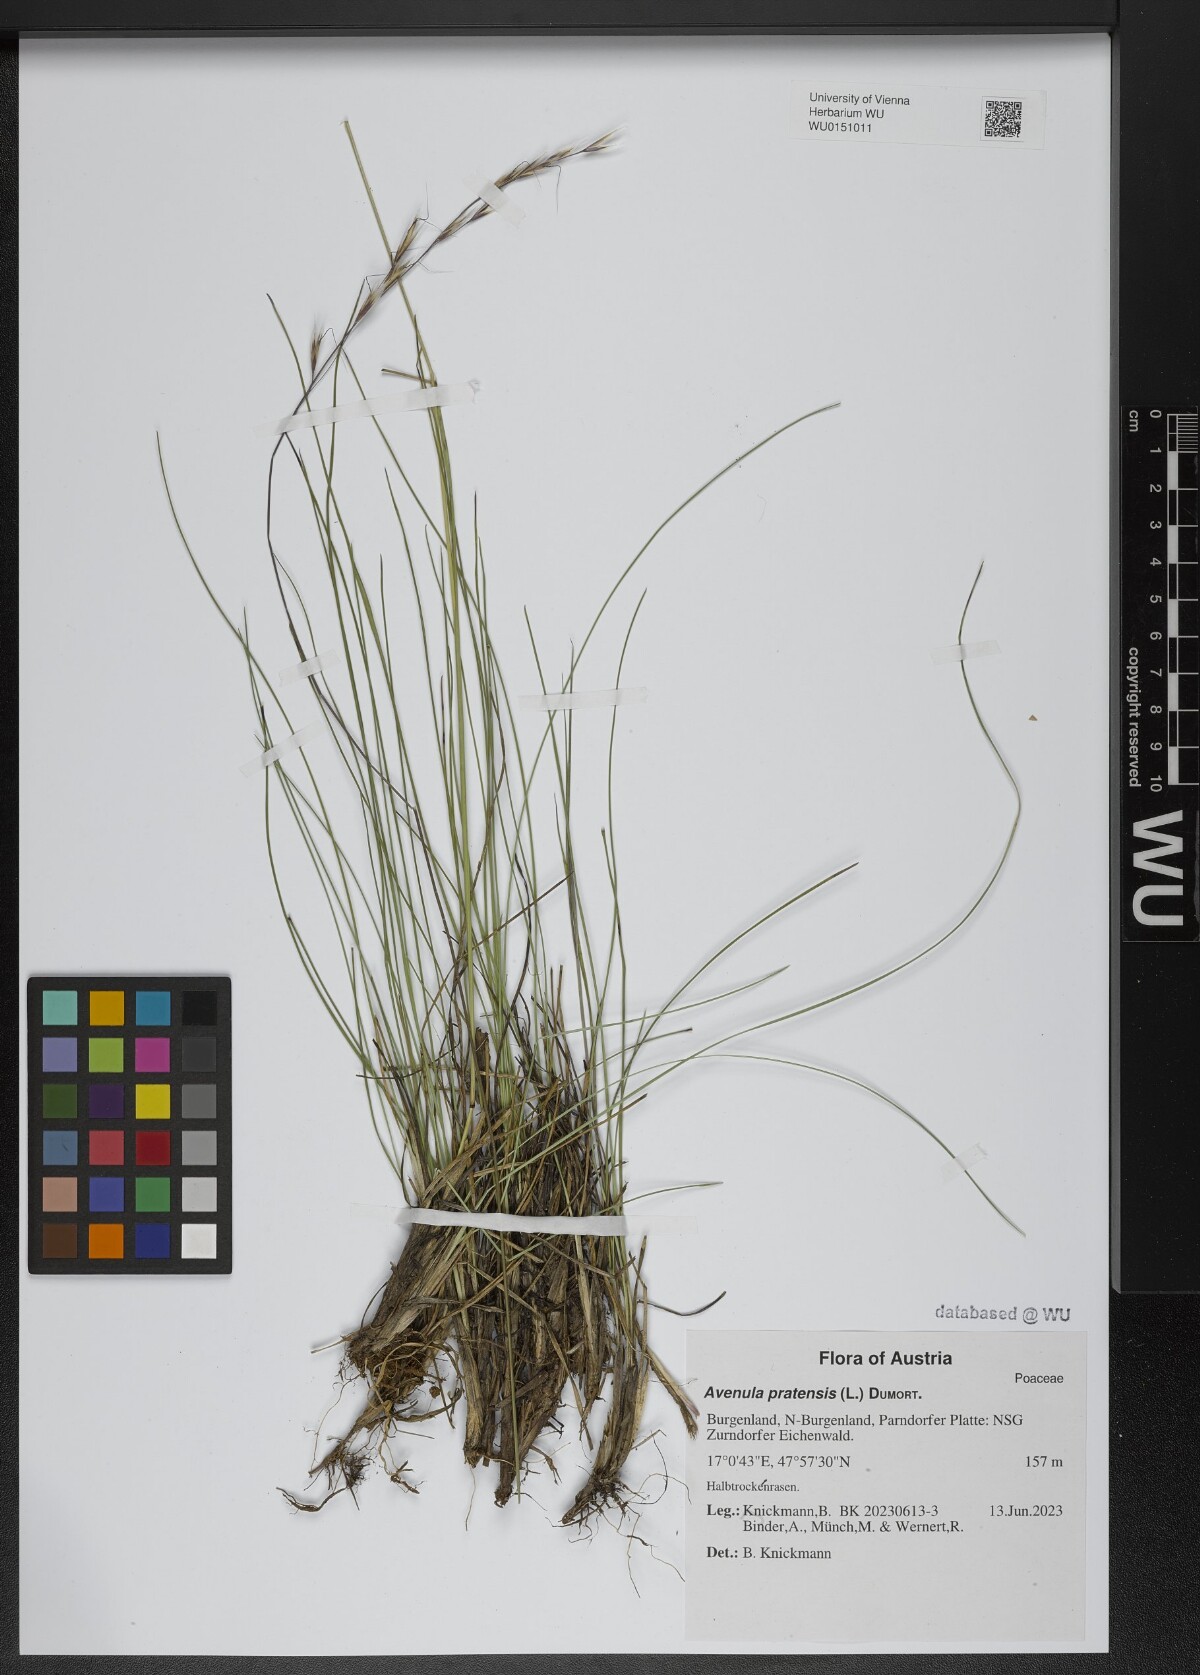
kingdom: Plantae
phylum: Tracheophyta
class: Liliopsida
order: Poales
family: Poaceae
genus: Helictochloa
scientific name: Helictochloa pratensis
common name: Meadow oat grass
